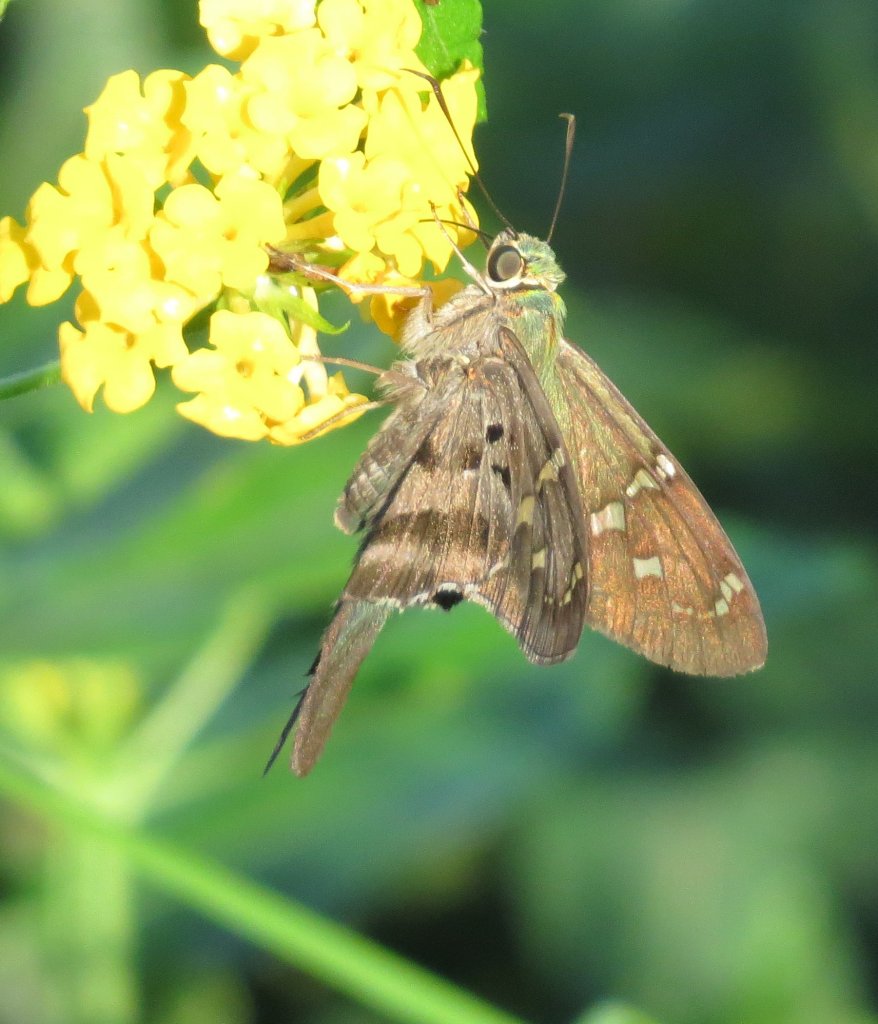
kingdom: Animalia
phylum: Arthropoda
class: Insecta
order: Lepidoptera
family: Hesperiidae
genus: Urbanus
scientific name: Urbanus proteus
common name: Long-tailed Skipper
